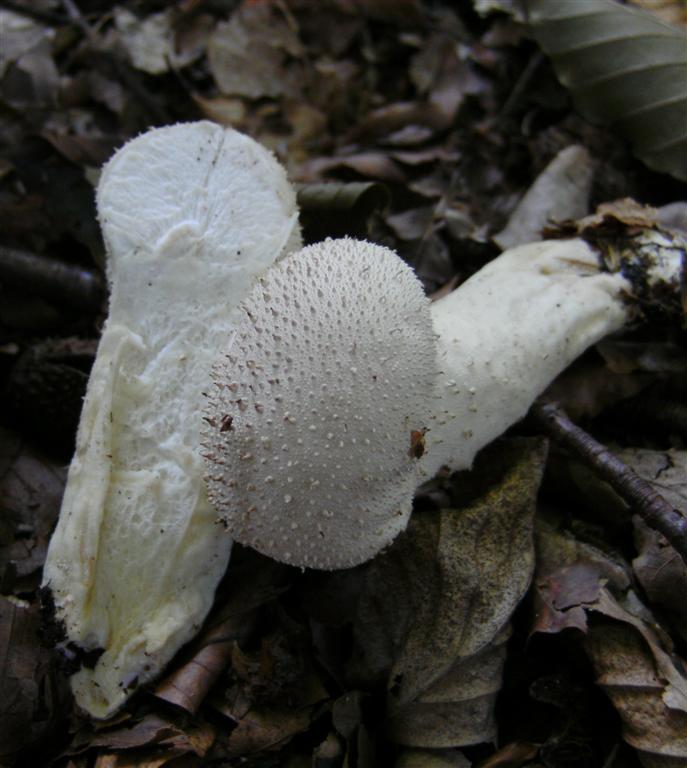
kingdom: Fungi
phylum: Basidiomycota
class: Agaricomycetes
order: Agaricales
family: Lycoperdaceae
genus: Lycoperdon
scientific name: Lycoperdon perlatum
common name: krystal-støvbold
